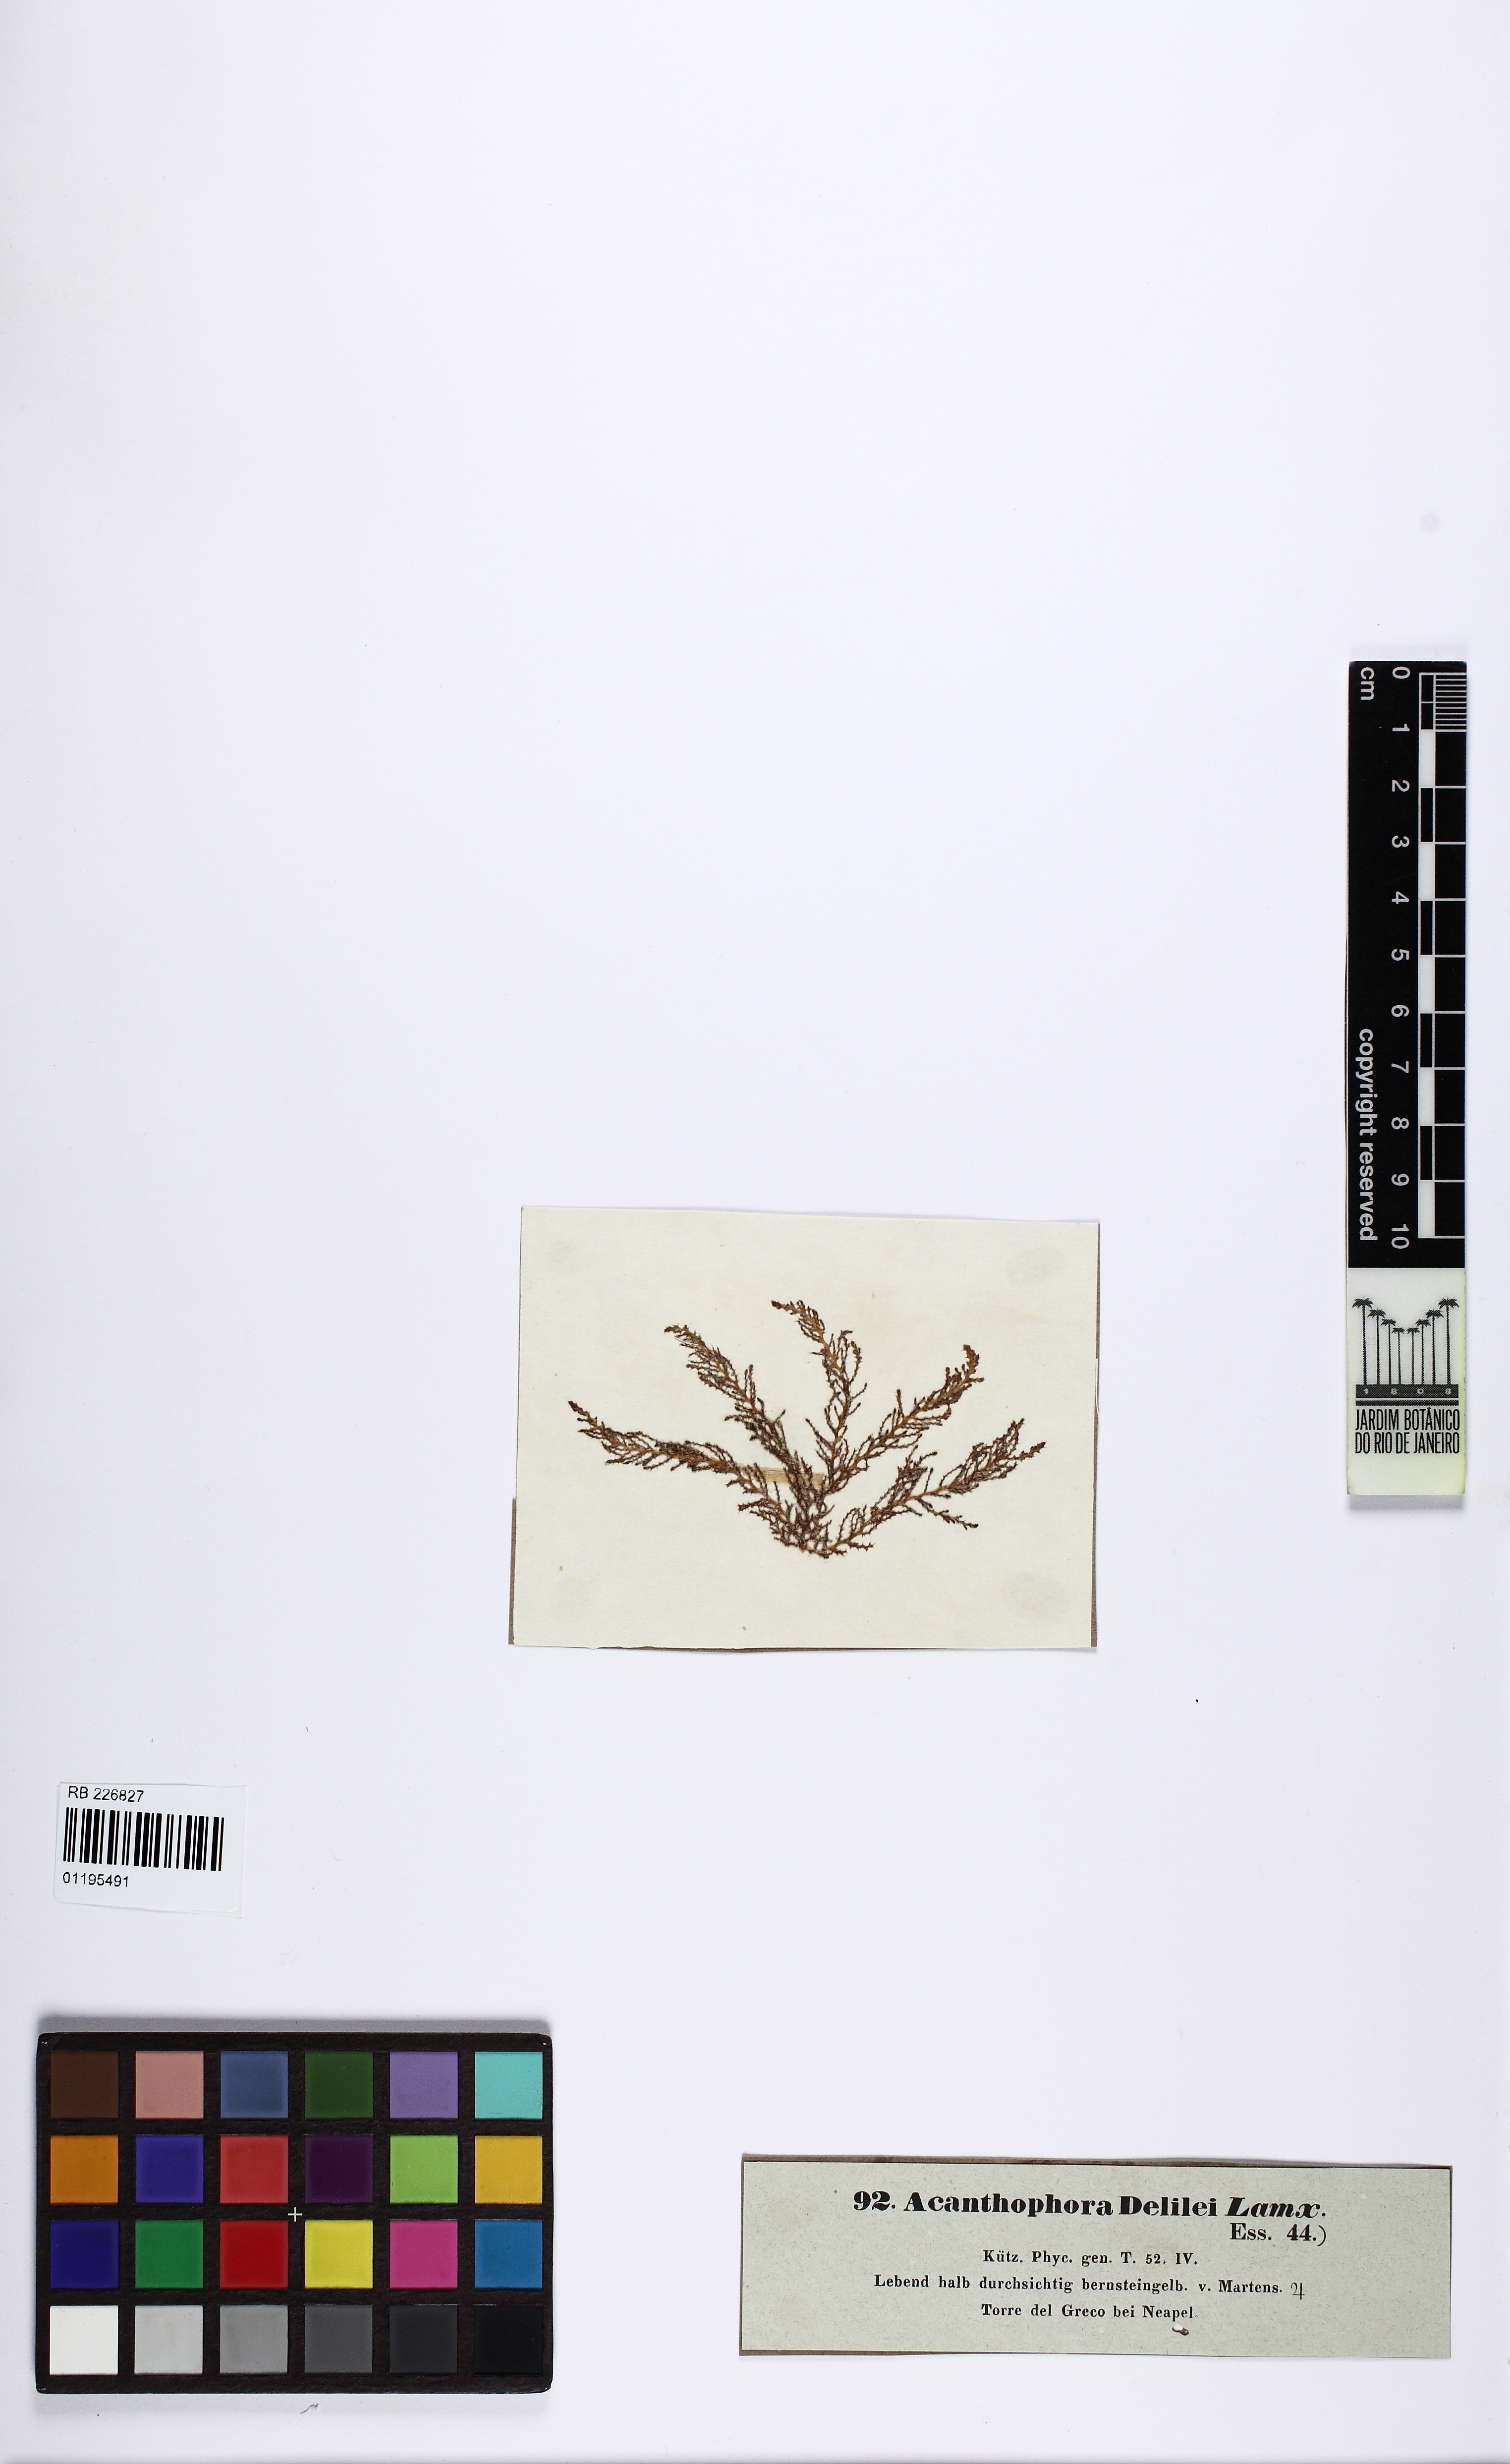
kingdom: Plantae
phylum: Rhodophyta
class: Florideophyceae
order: Ceramiales
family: Rhodomelaceae
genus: Acanthophora
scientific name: Acanthophora nayadiformis
